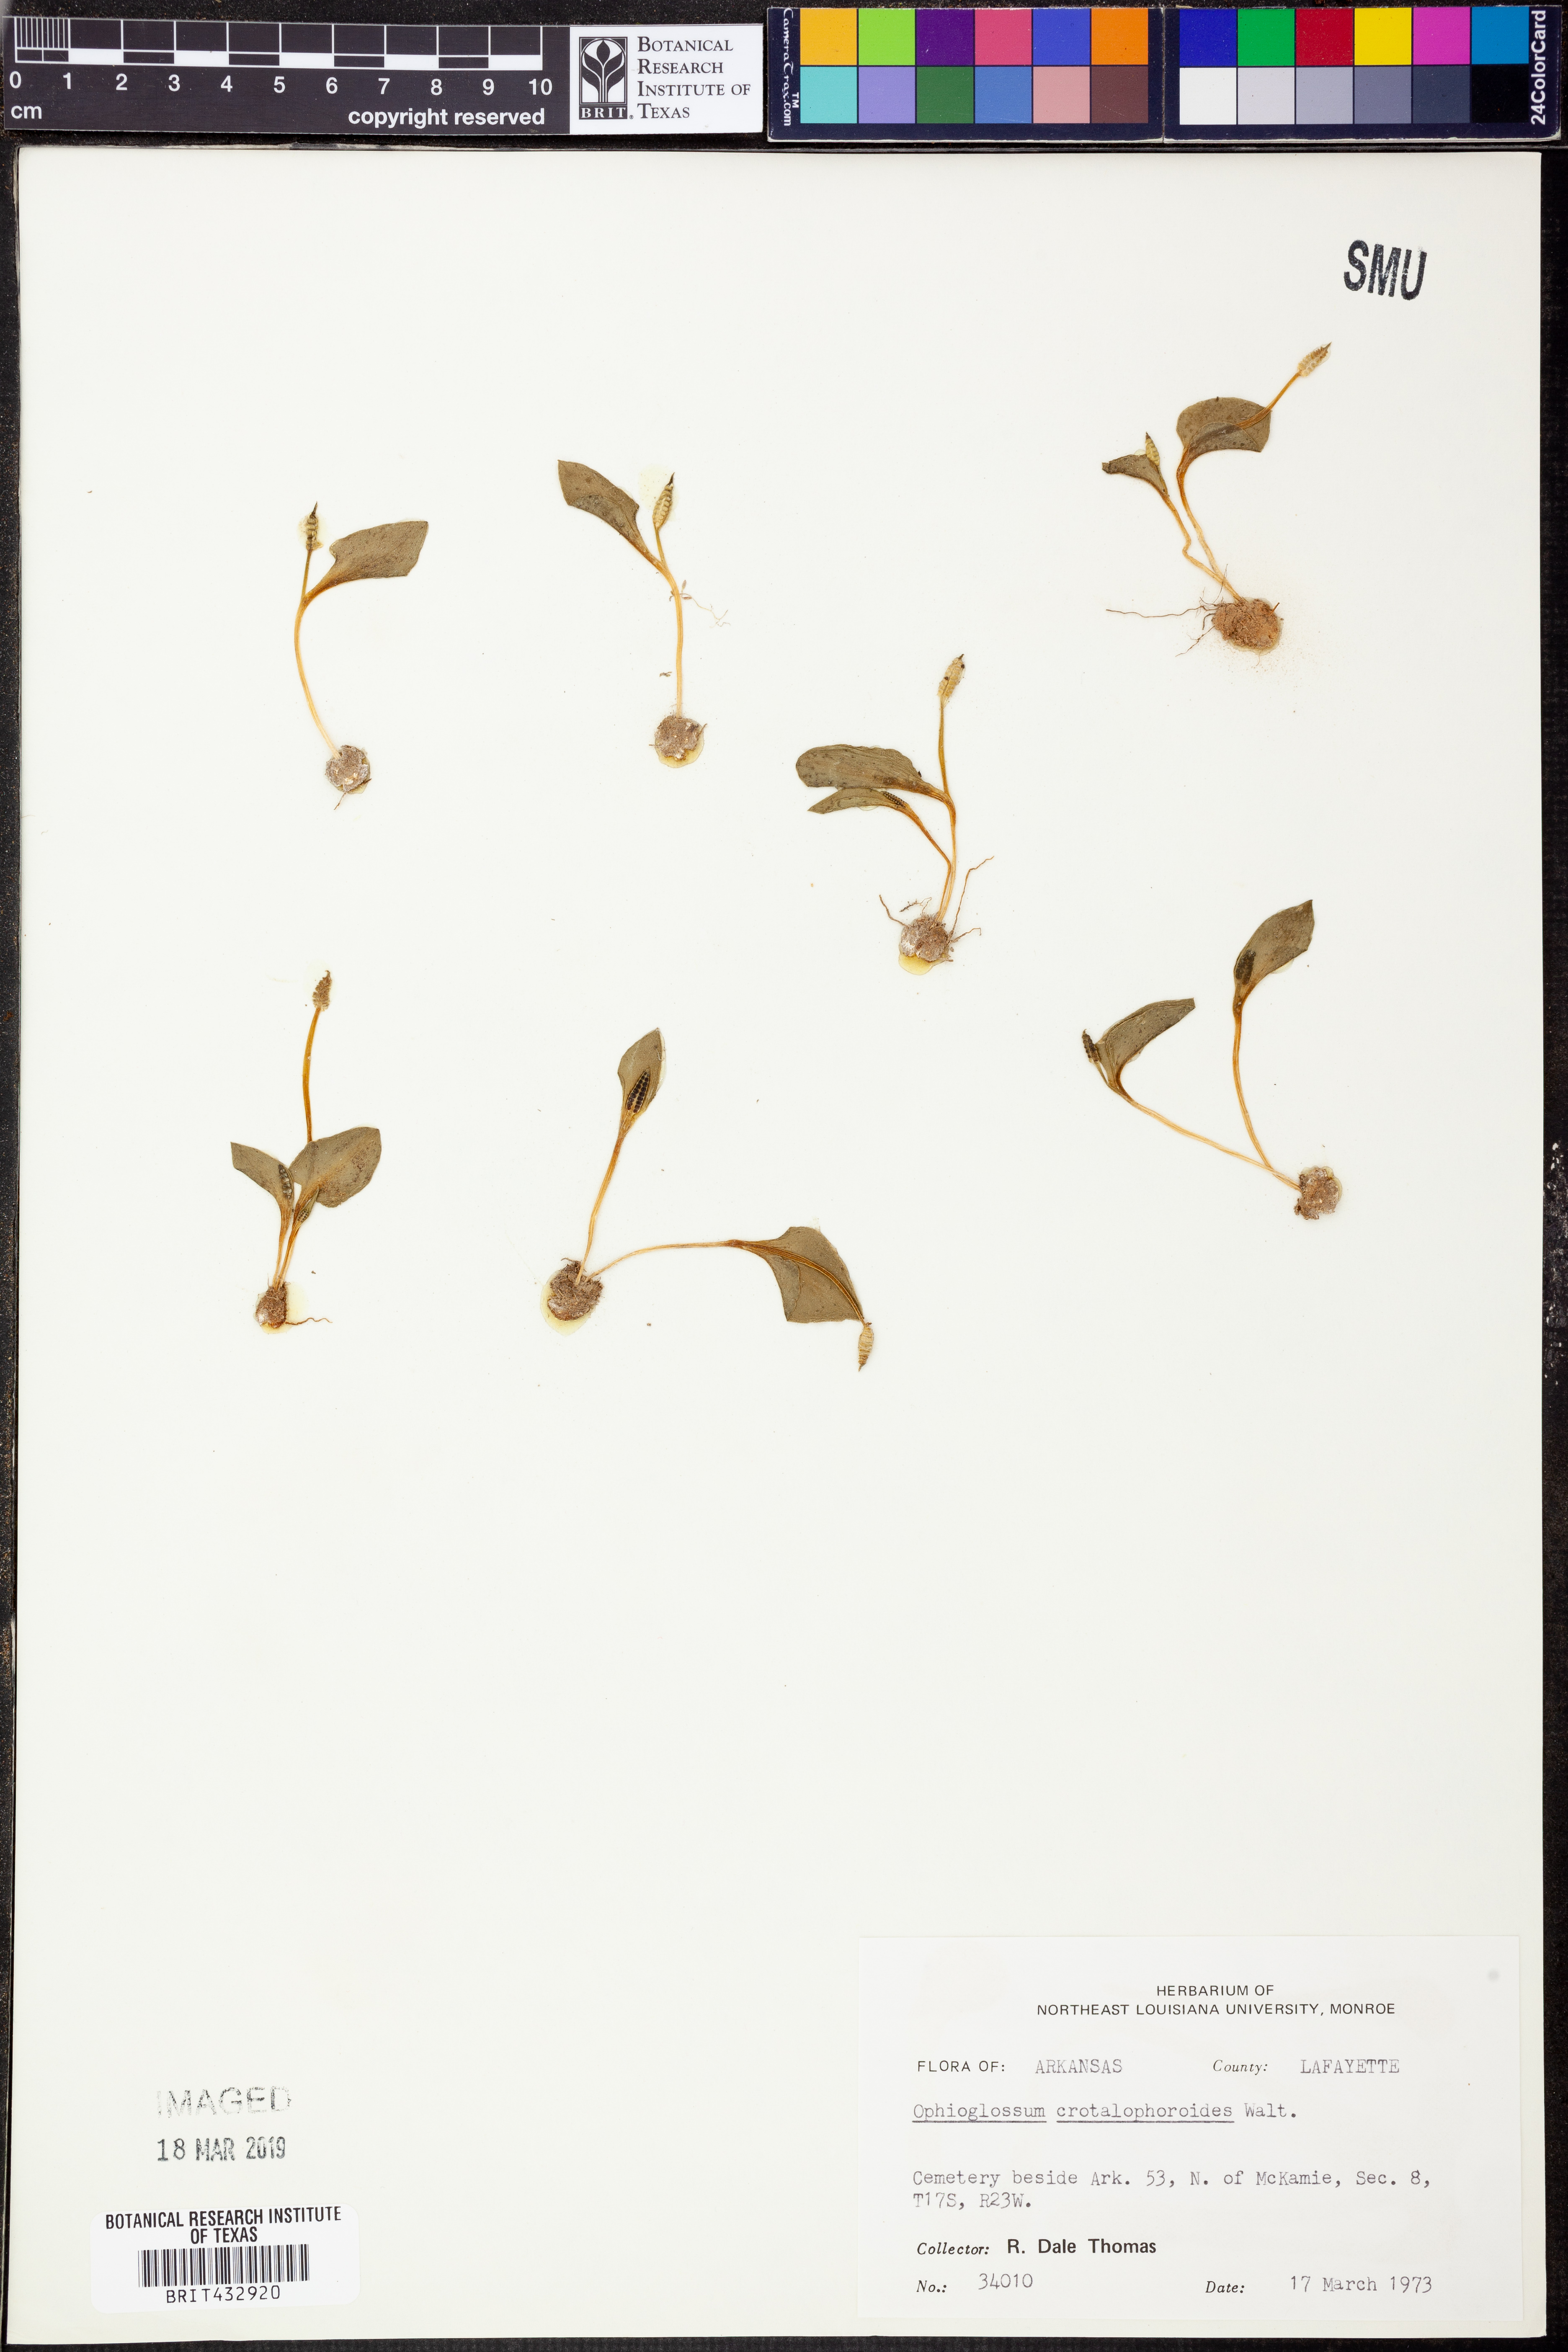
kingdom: Plantae
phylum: Tracheophyta
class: Polypodiopsida
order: Ophioglossales
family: Ophioglossaceae
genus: Ophioglossum
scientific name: Ophioglossum crotalophoroides
